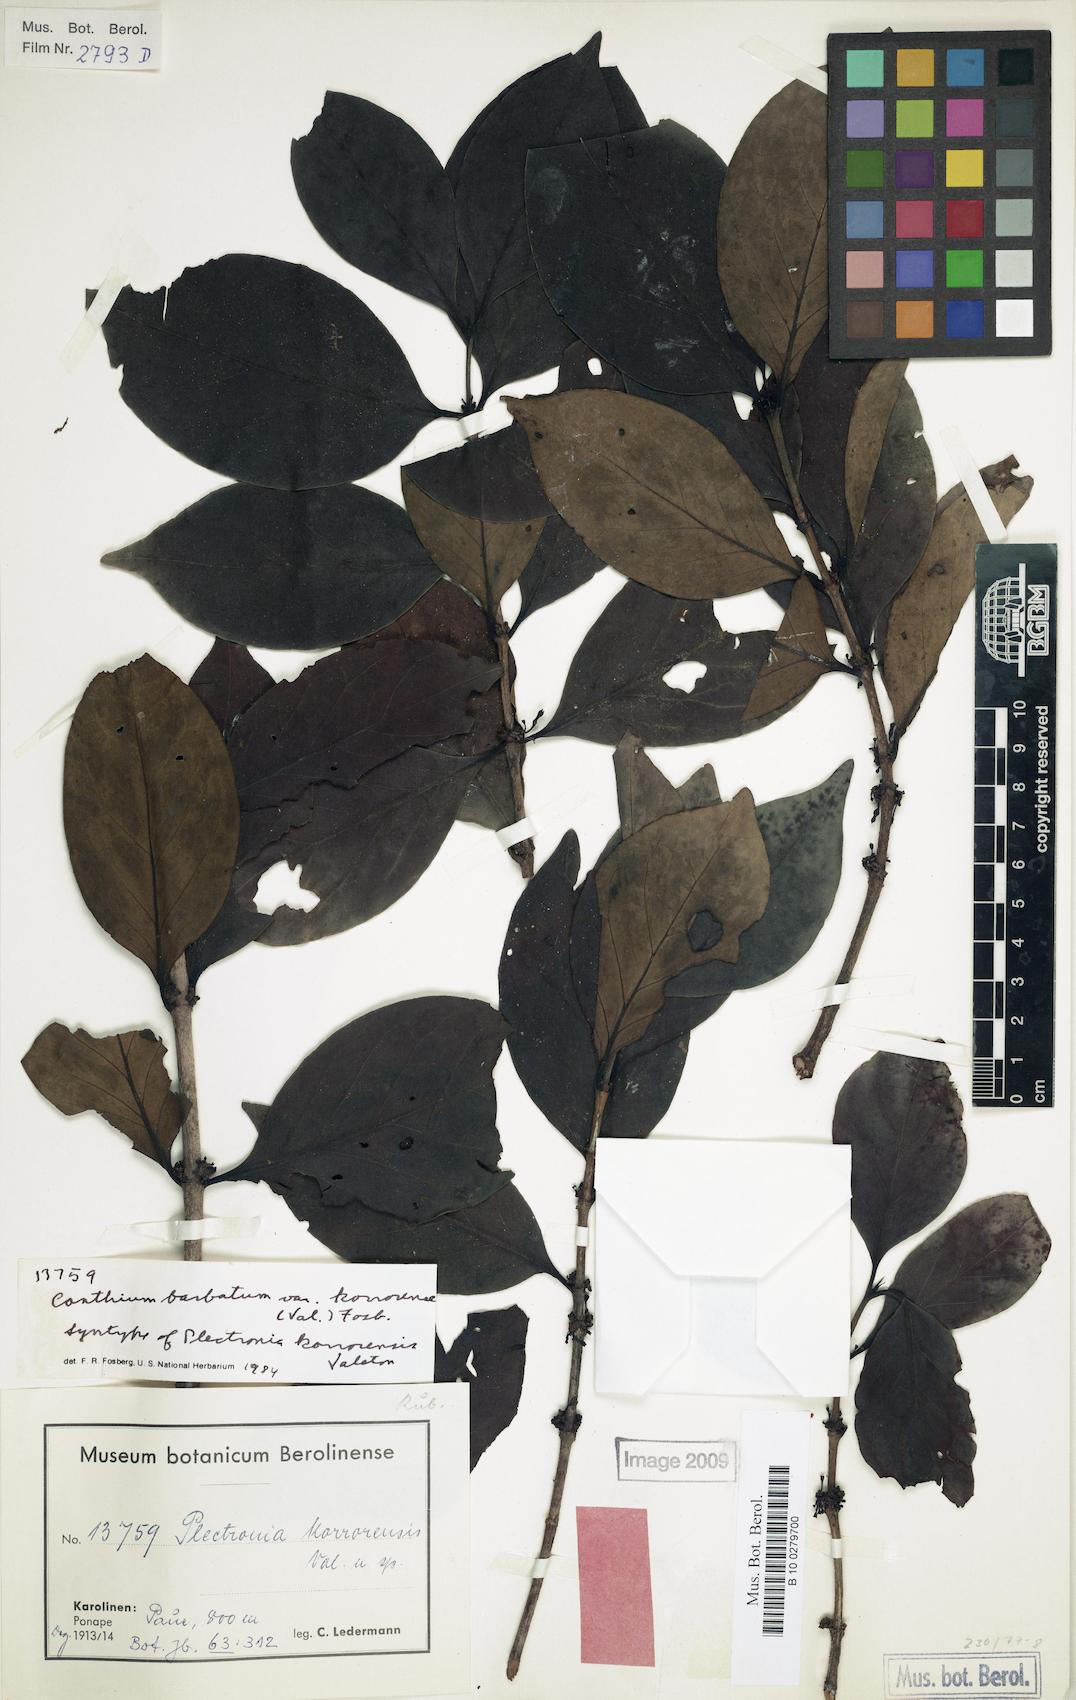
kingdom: Plantae
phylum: Tracheophyta
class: Magnoliopsida
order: Gentianales
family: Rubiaceae
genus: Cyclophyllum
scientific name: Cyclophyllum barbatum
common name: Cyclophyllum
